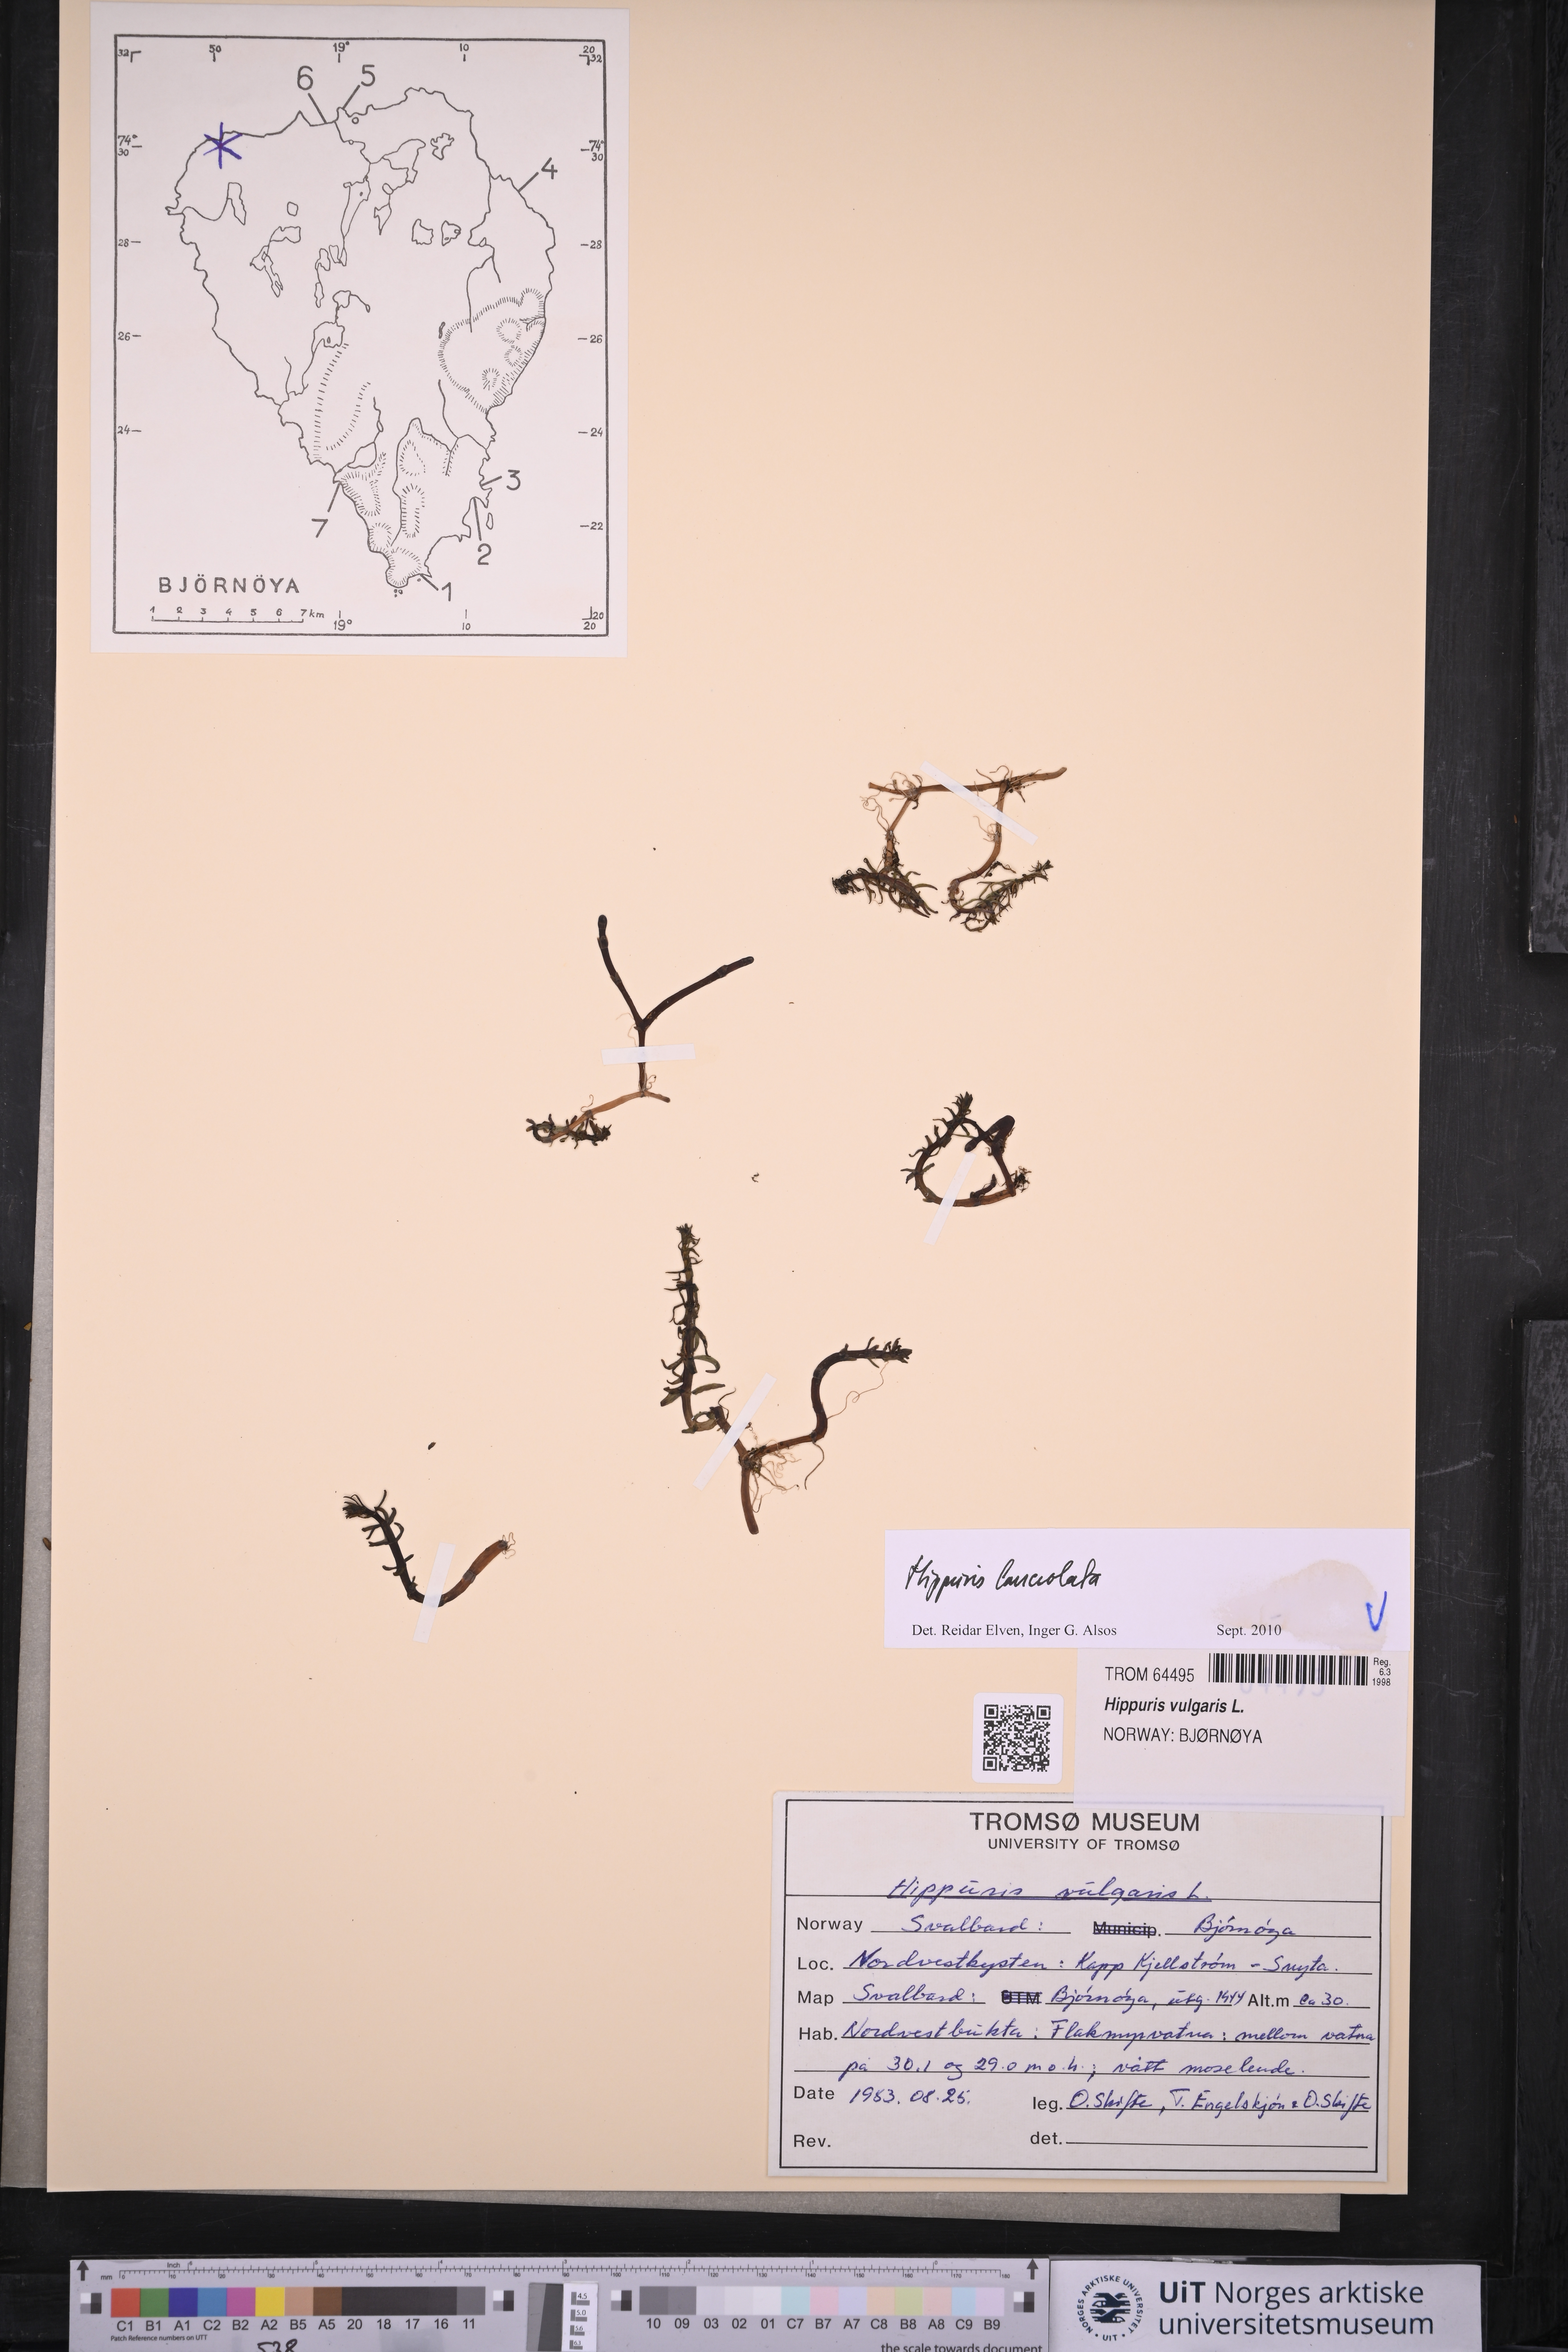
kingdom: Plantae
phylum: Tracheophyta
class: Magnoliopsida
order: Lamiales
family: Plantaginaceae
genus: Hippuris
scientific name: Hippuris lanceolata
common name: Lance-leaved mare's-tail
